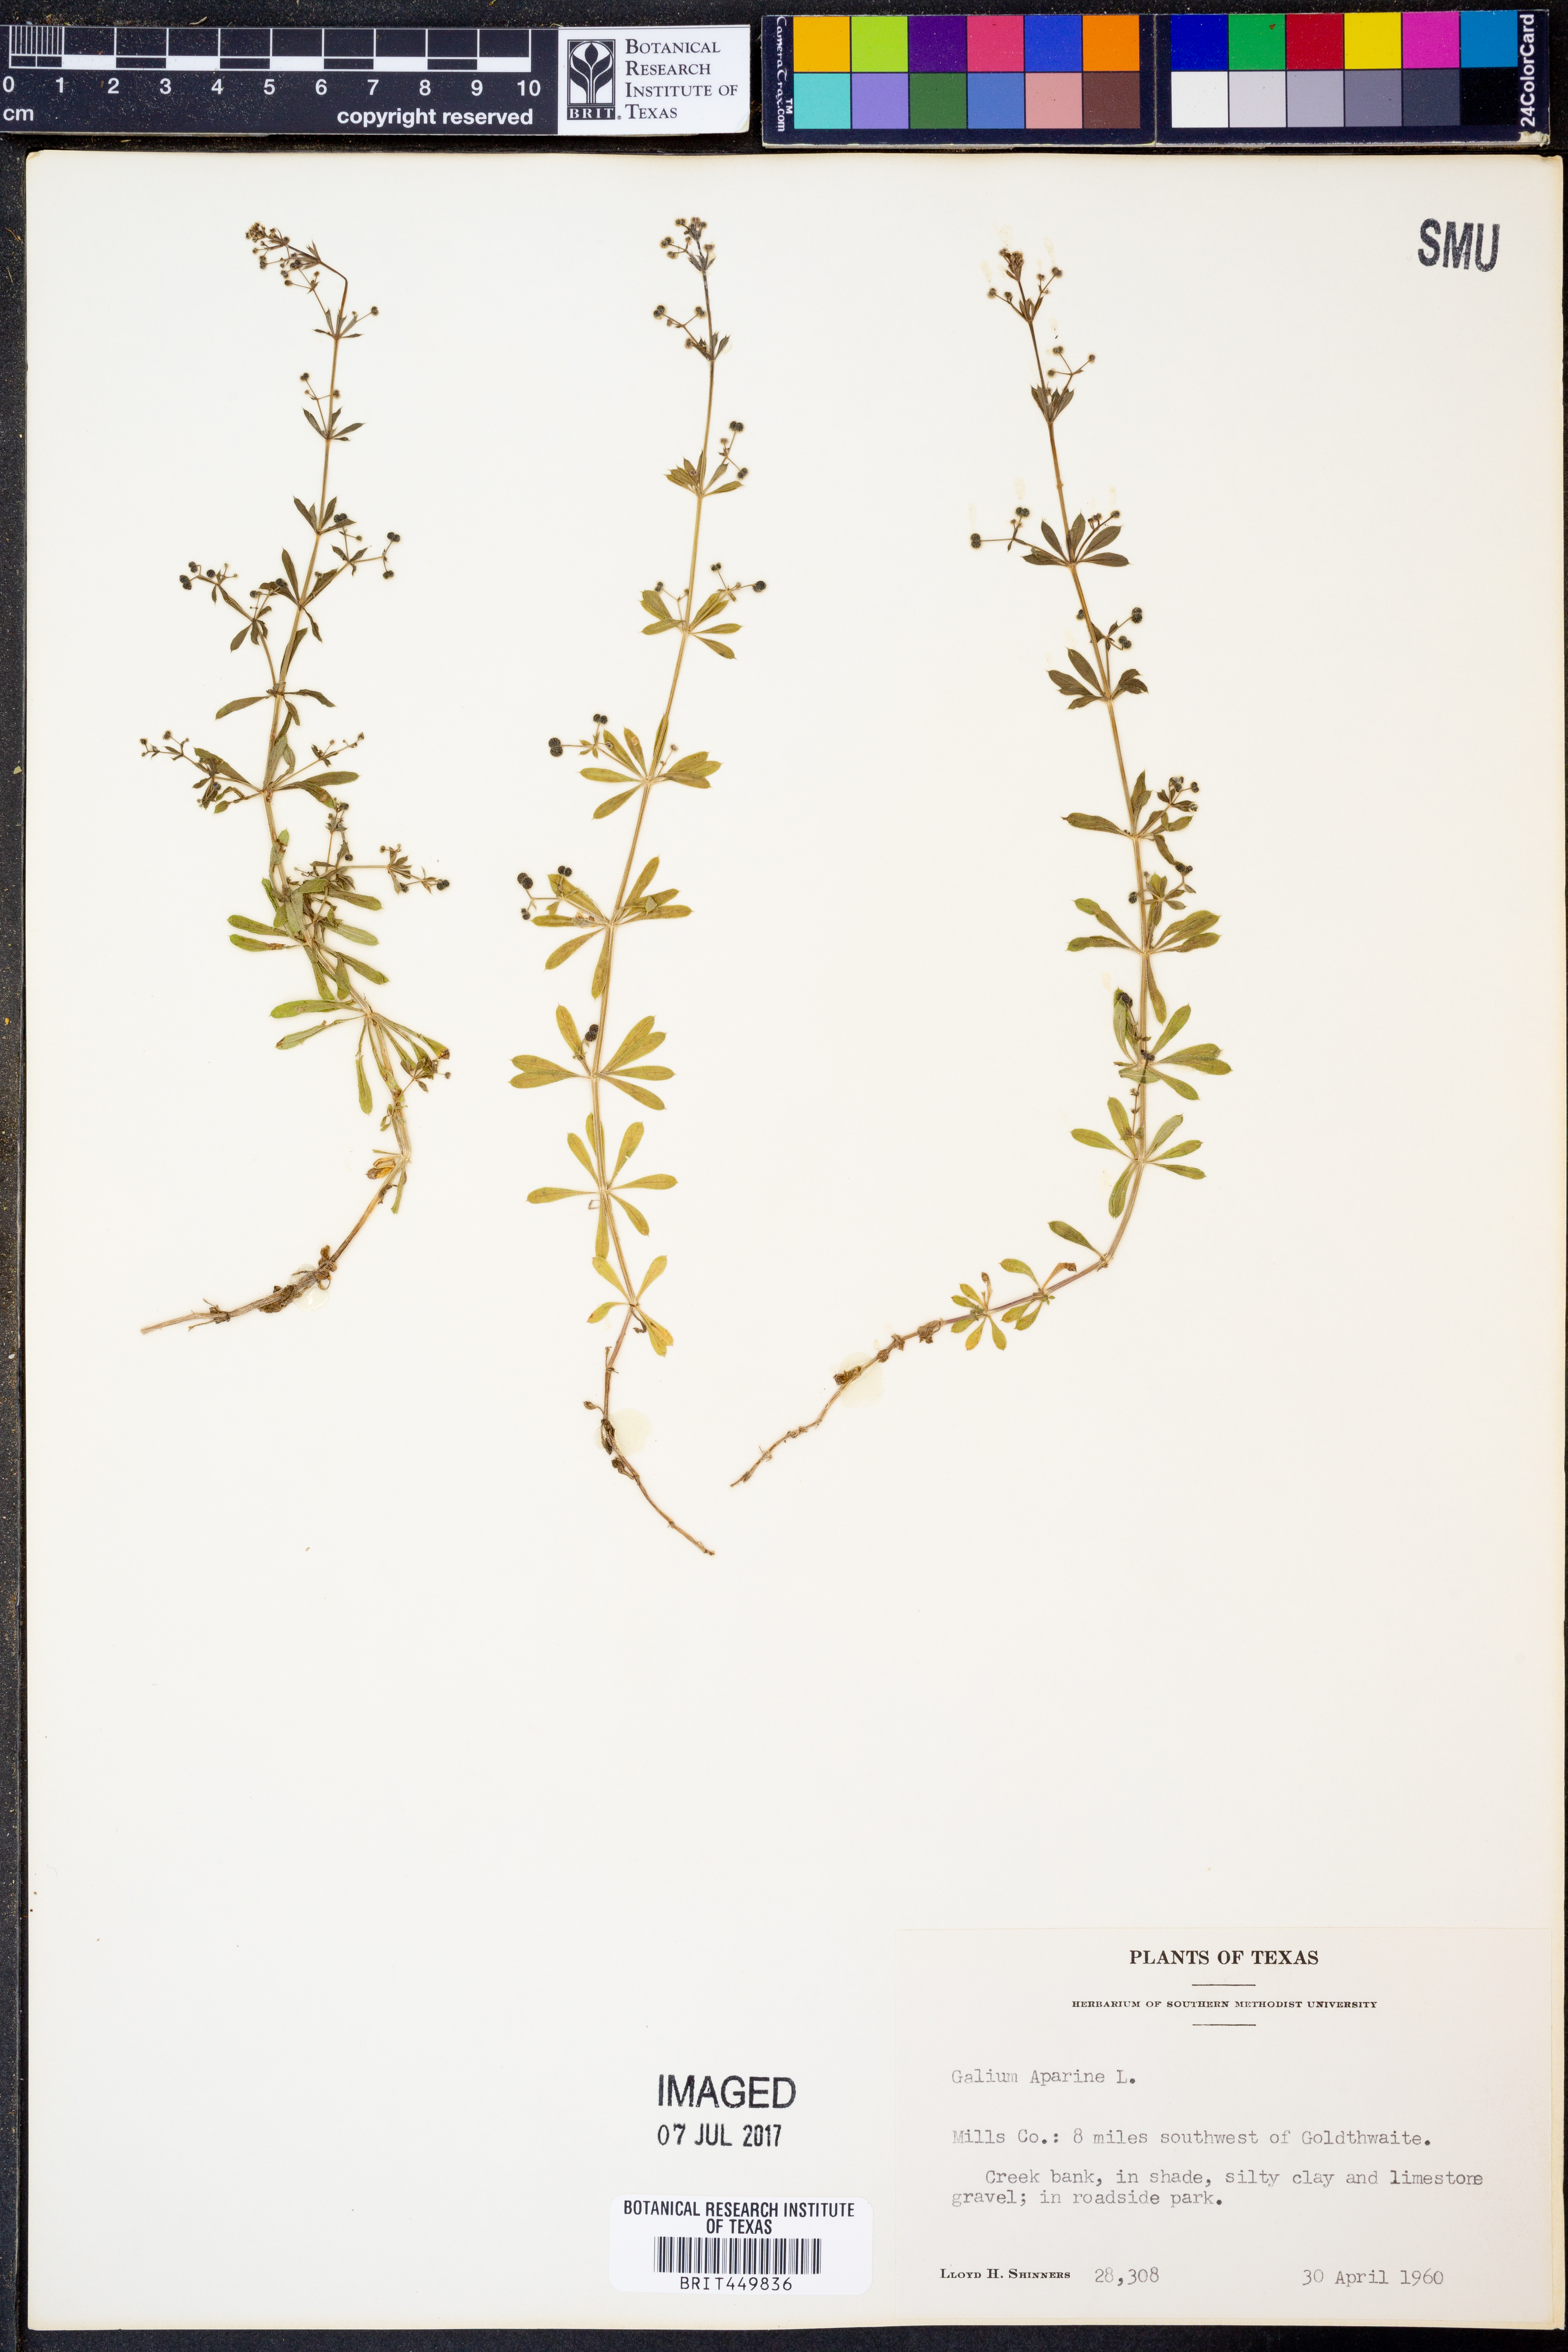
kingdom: Plantae
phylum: Tracheophyta
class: Magnoliopsida
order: Gentianales
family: Rubiaceae
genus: Galium
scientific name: Galium aparine
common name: Cleavers
